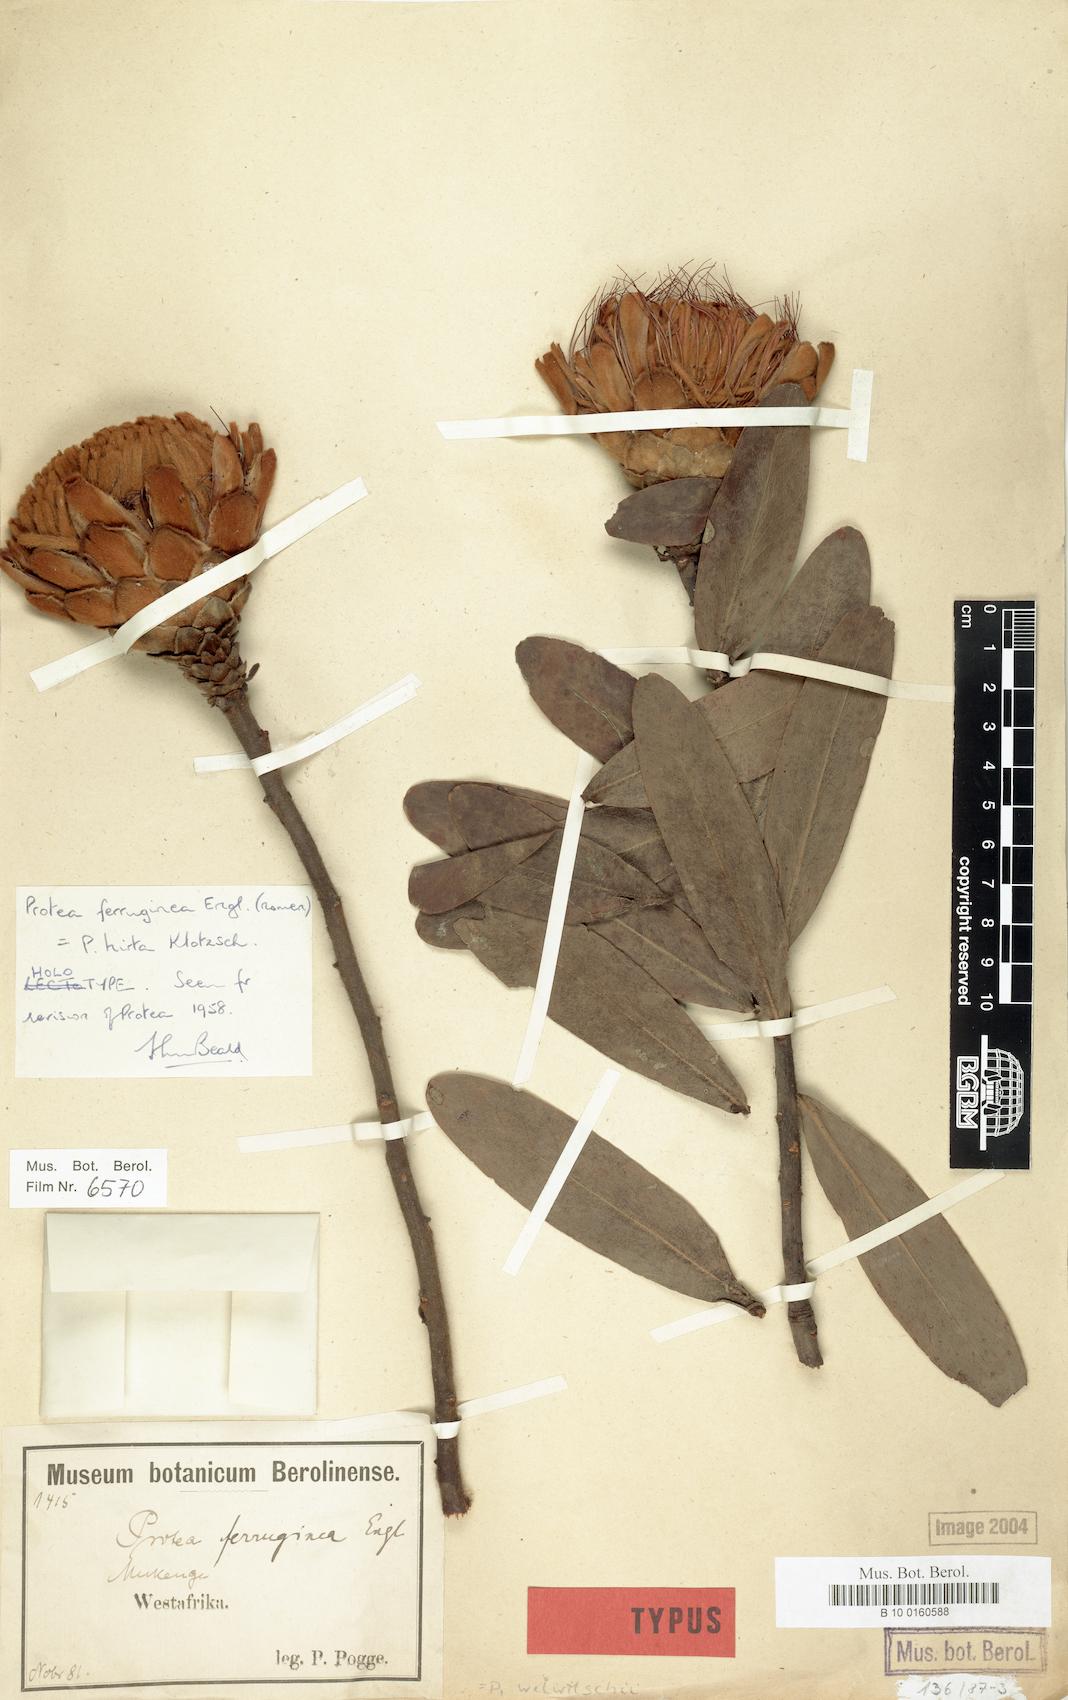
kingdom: Plantae
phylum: Tracheophyta
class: Magnoliopsida
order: Proteales
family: Proteaceae
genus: Protea
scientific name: Protea welwitschii
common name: Cluster-head protea
